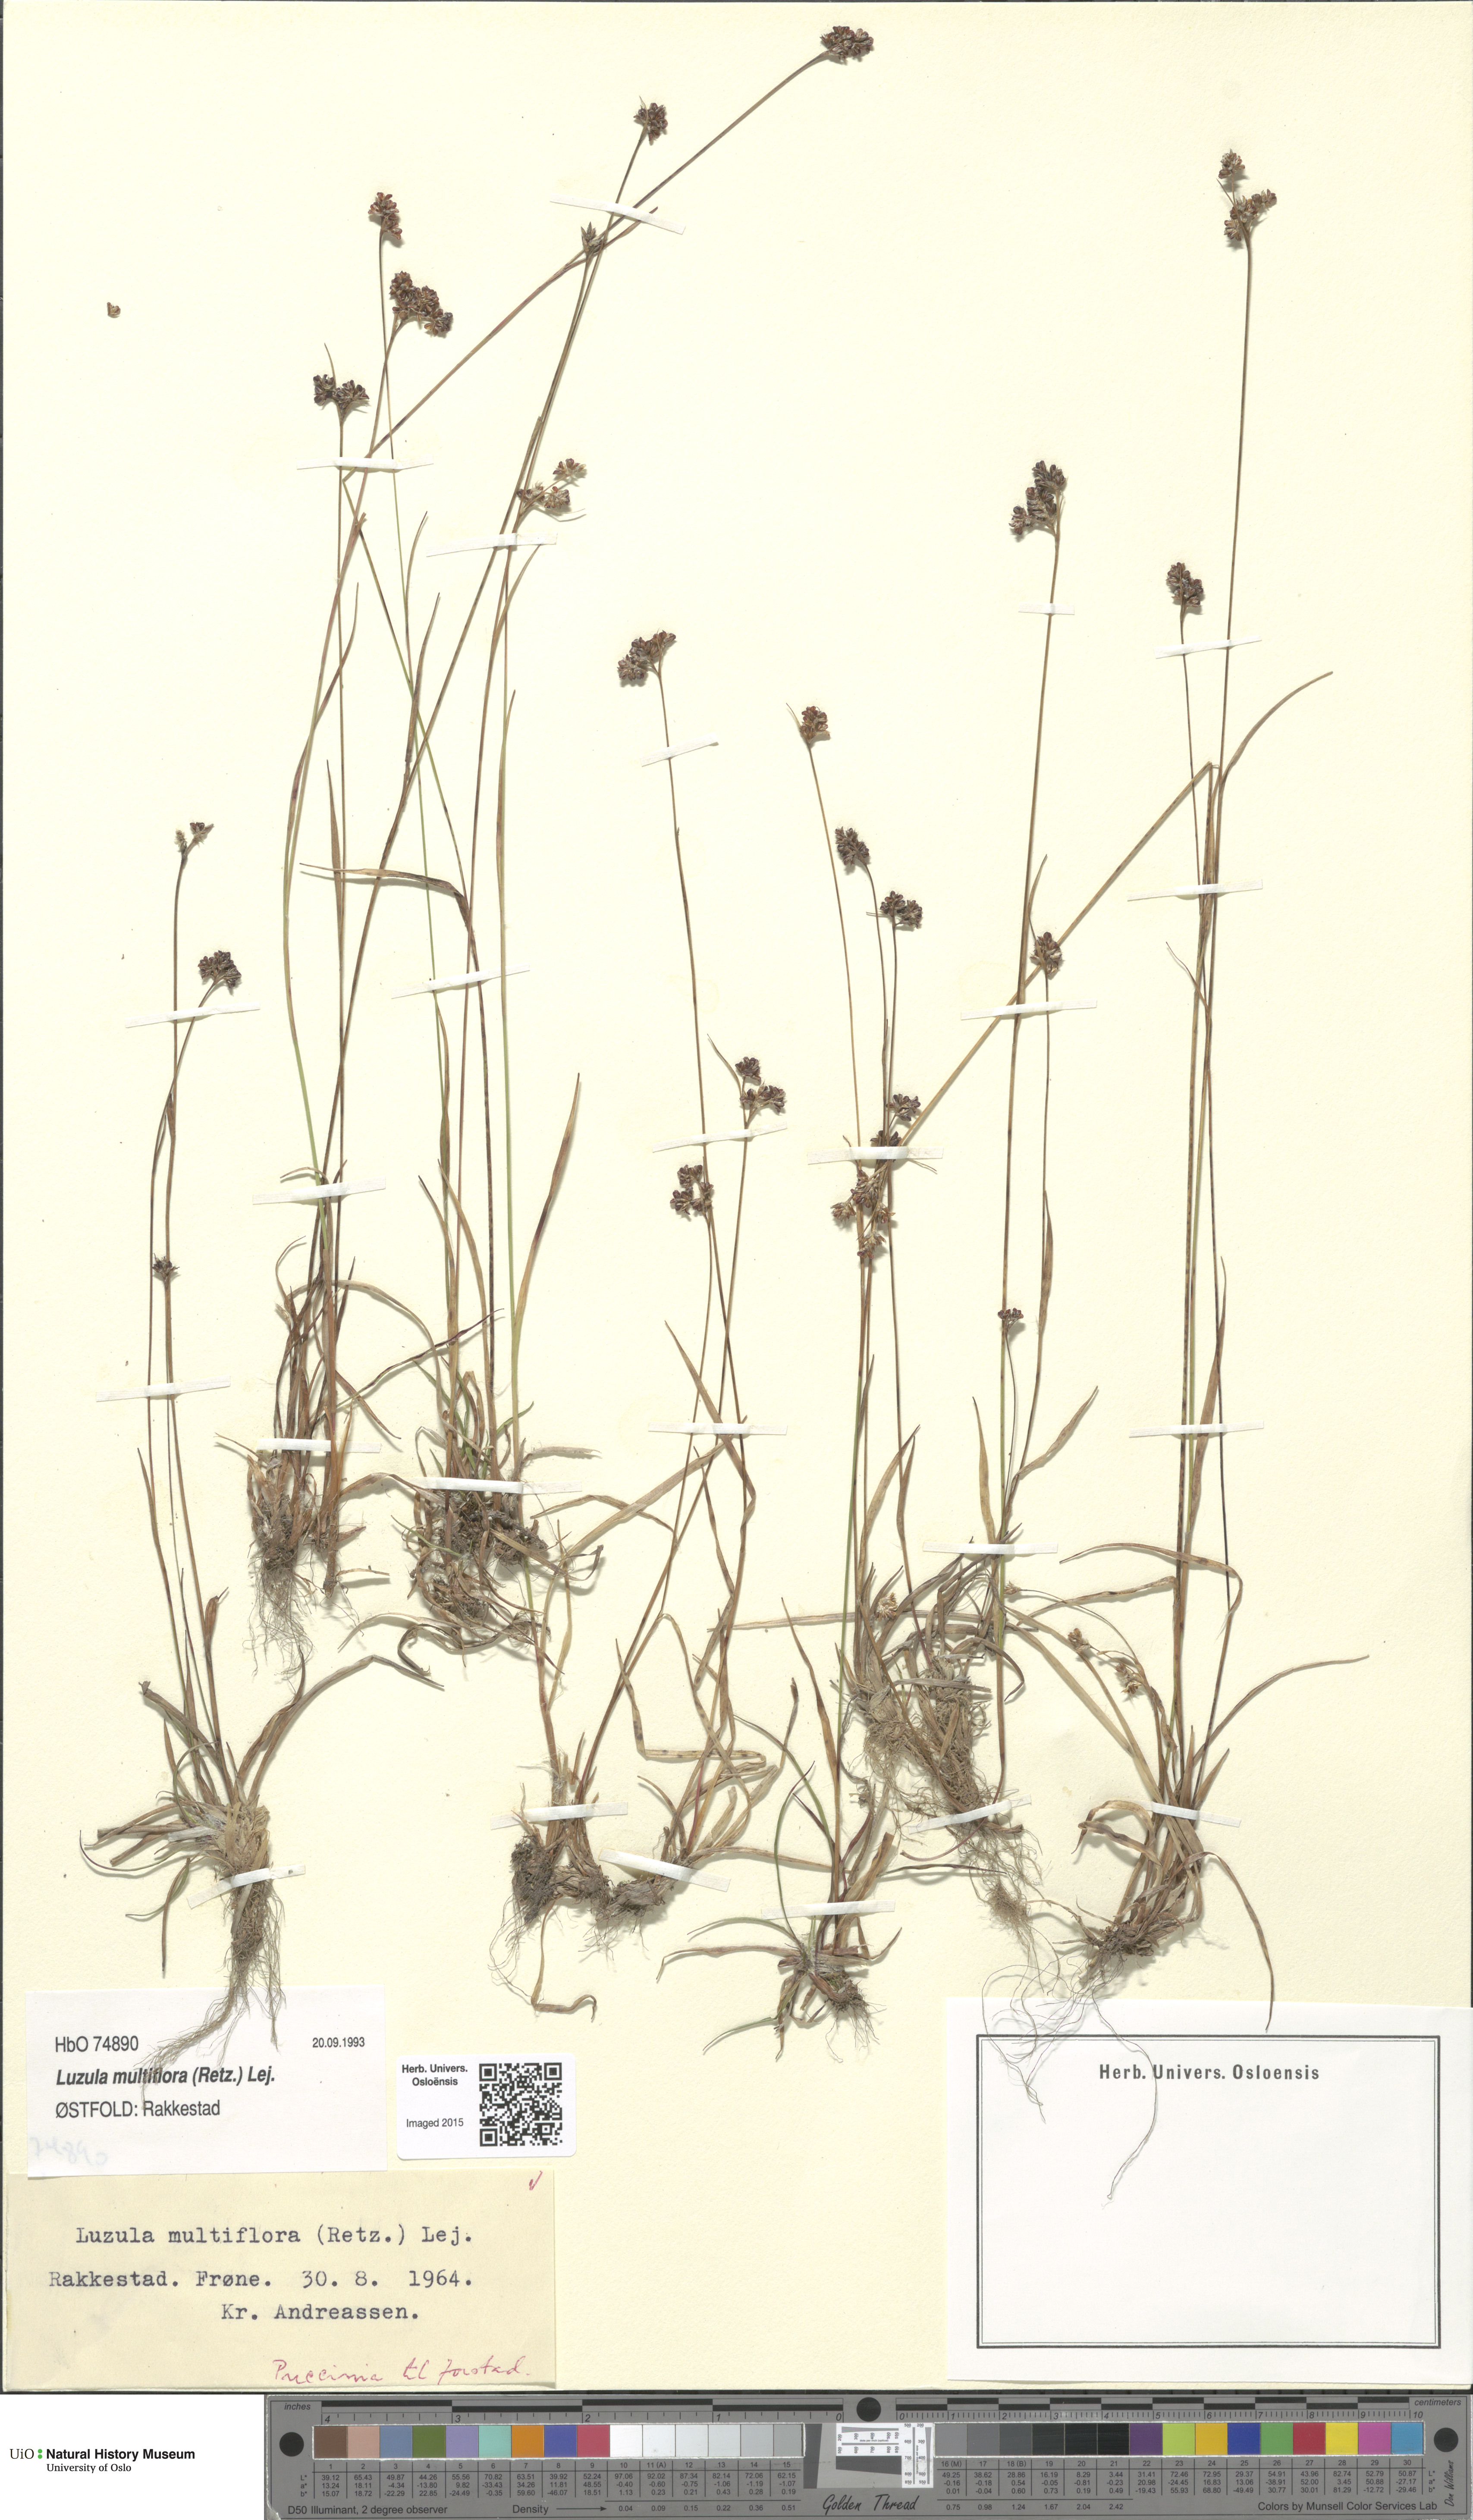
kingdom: Plantae
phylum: Tracheophyta
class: Liliopsida
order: Poales
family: Juncaceae
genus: Luzula
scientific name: Luzula multiflora
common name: Heath wood-rush
